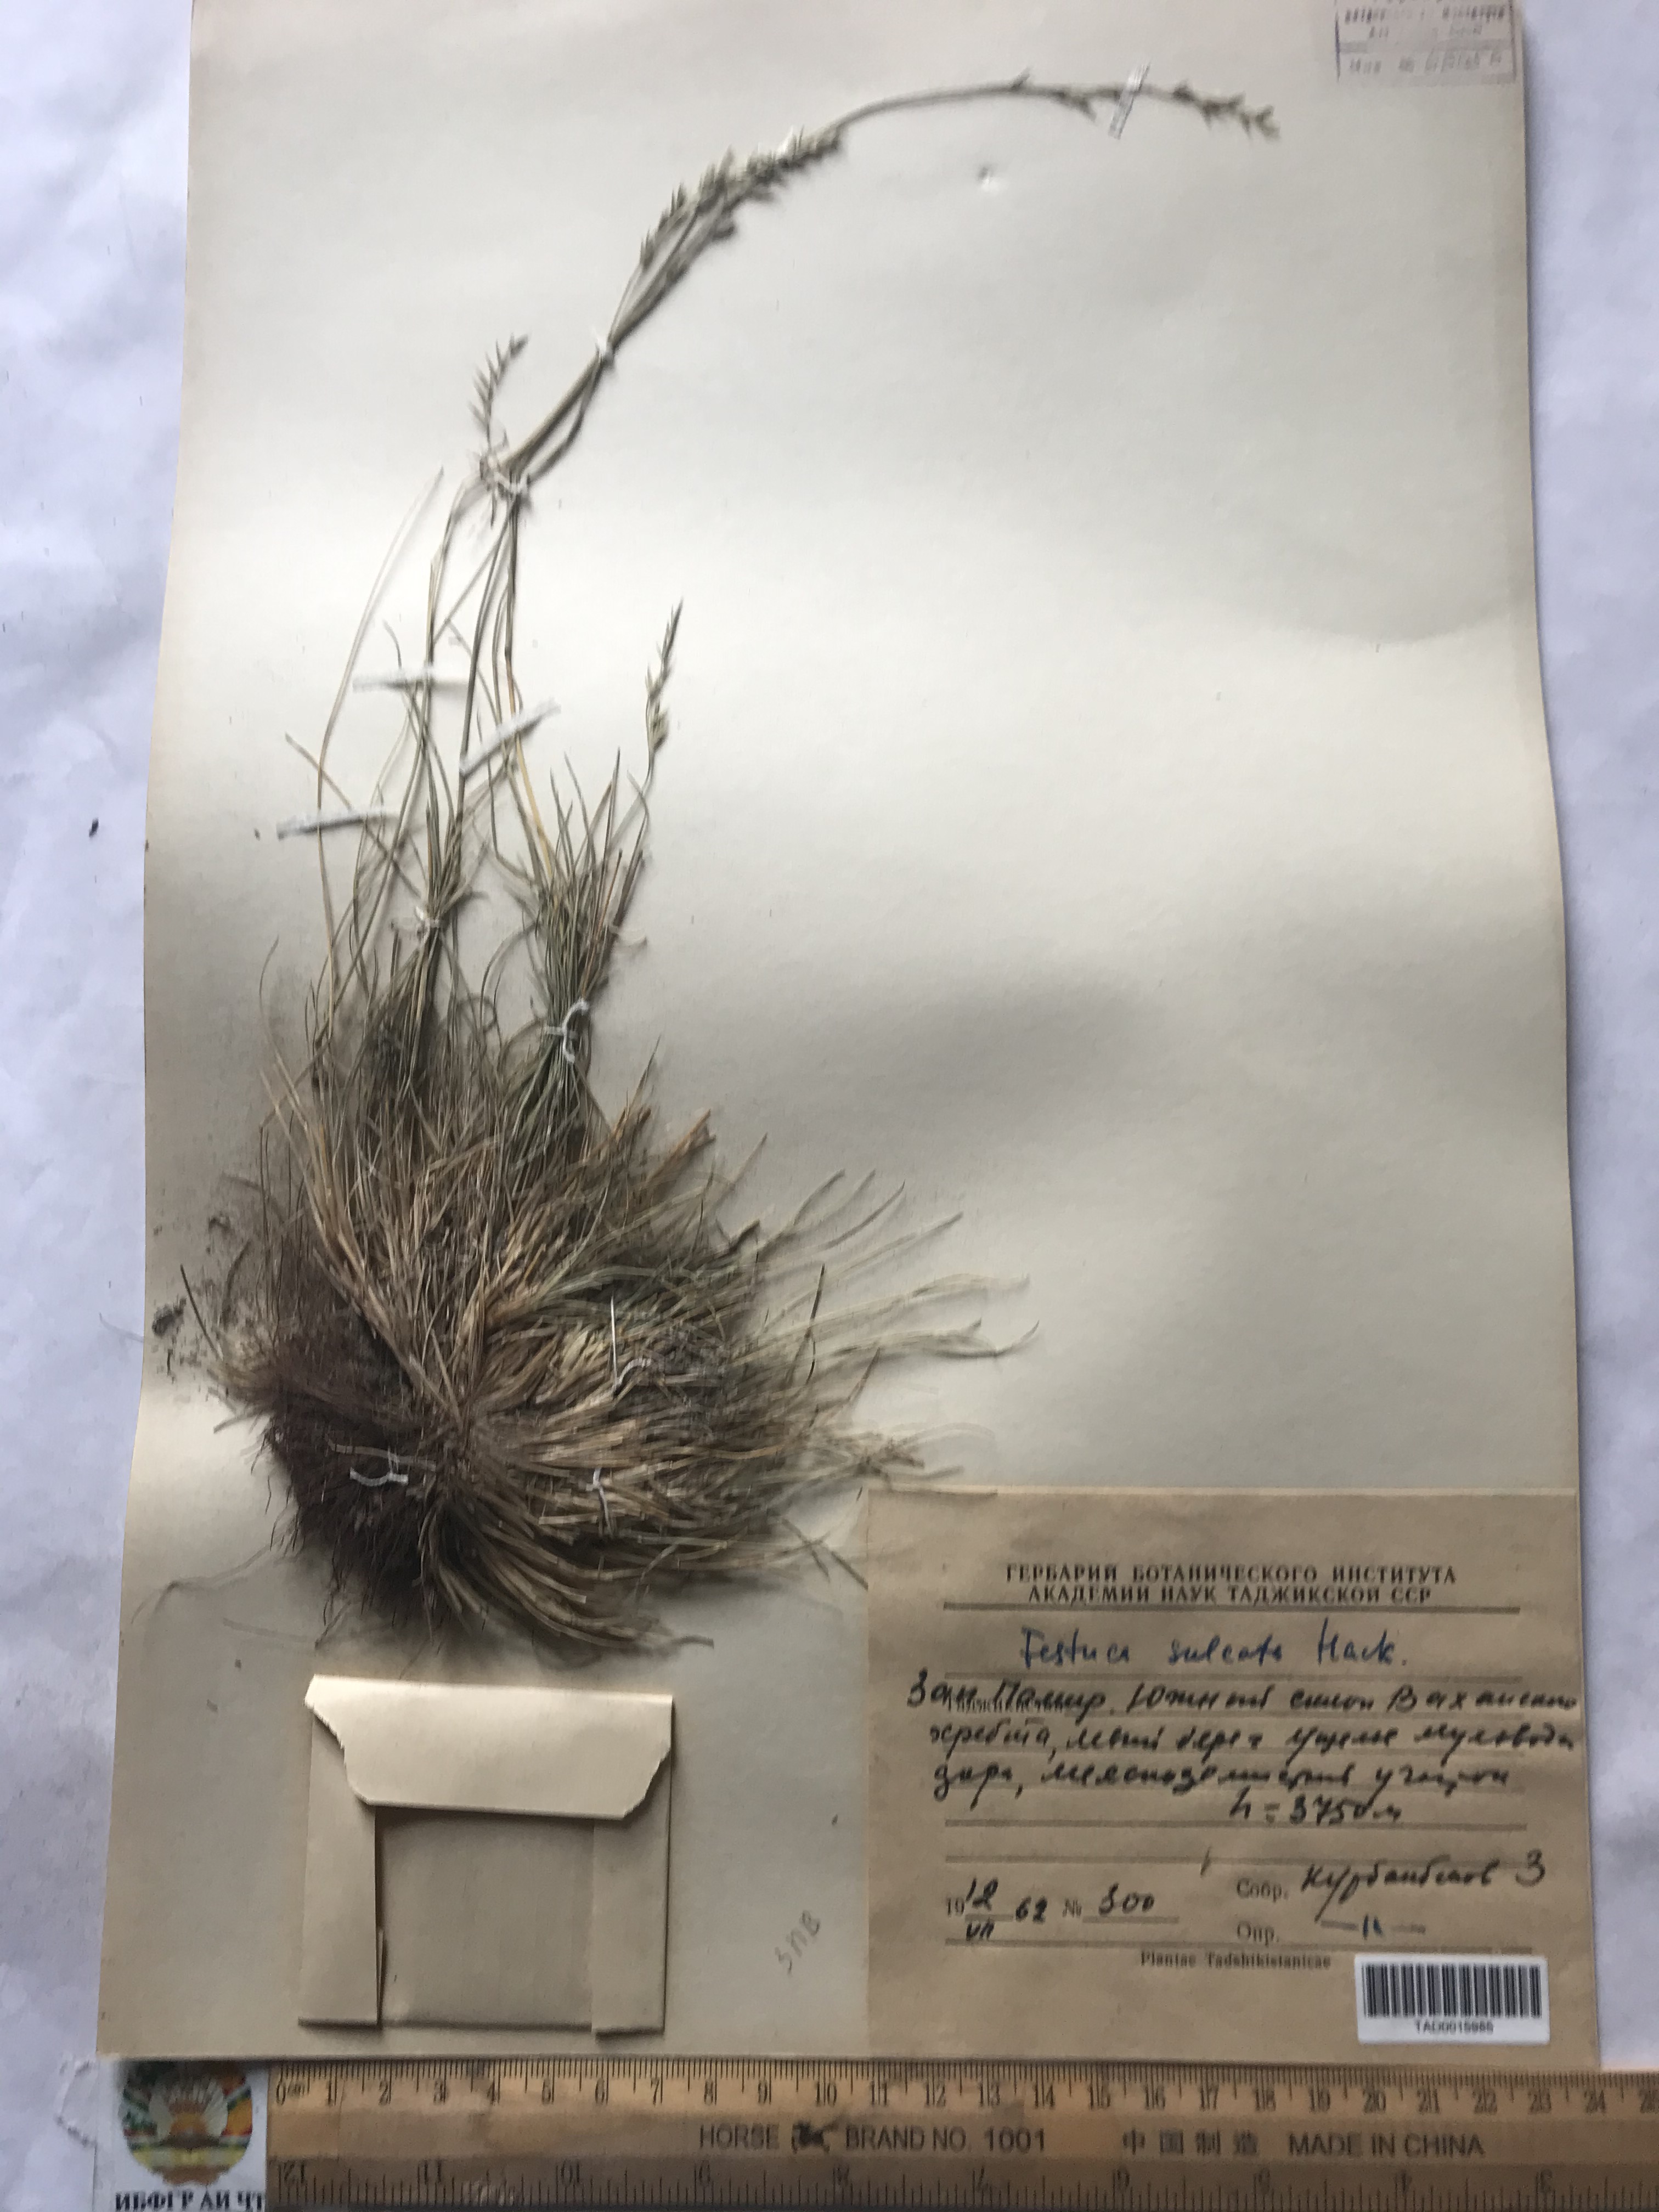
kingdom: Plantae
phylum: Tracheophyta
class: Liliopsida
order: Poales
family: Poaceae
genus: Festuca
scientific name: Festuca sulcata
